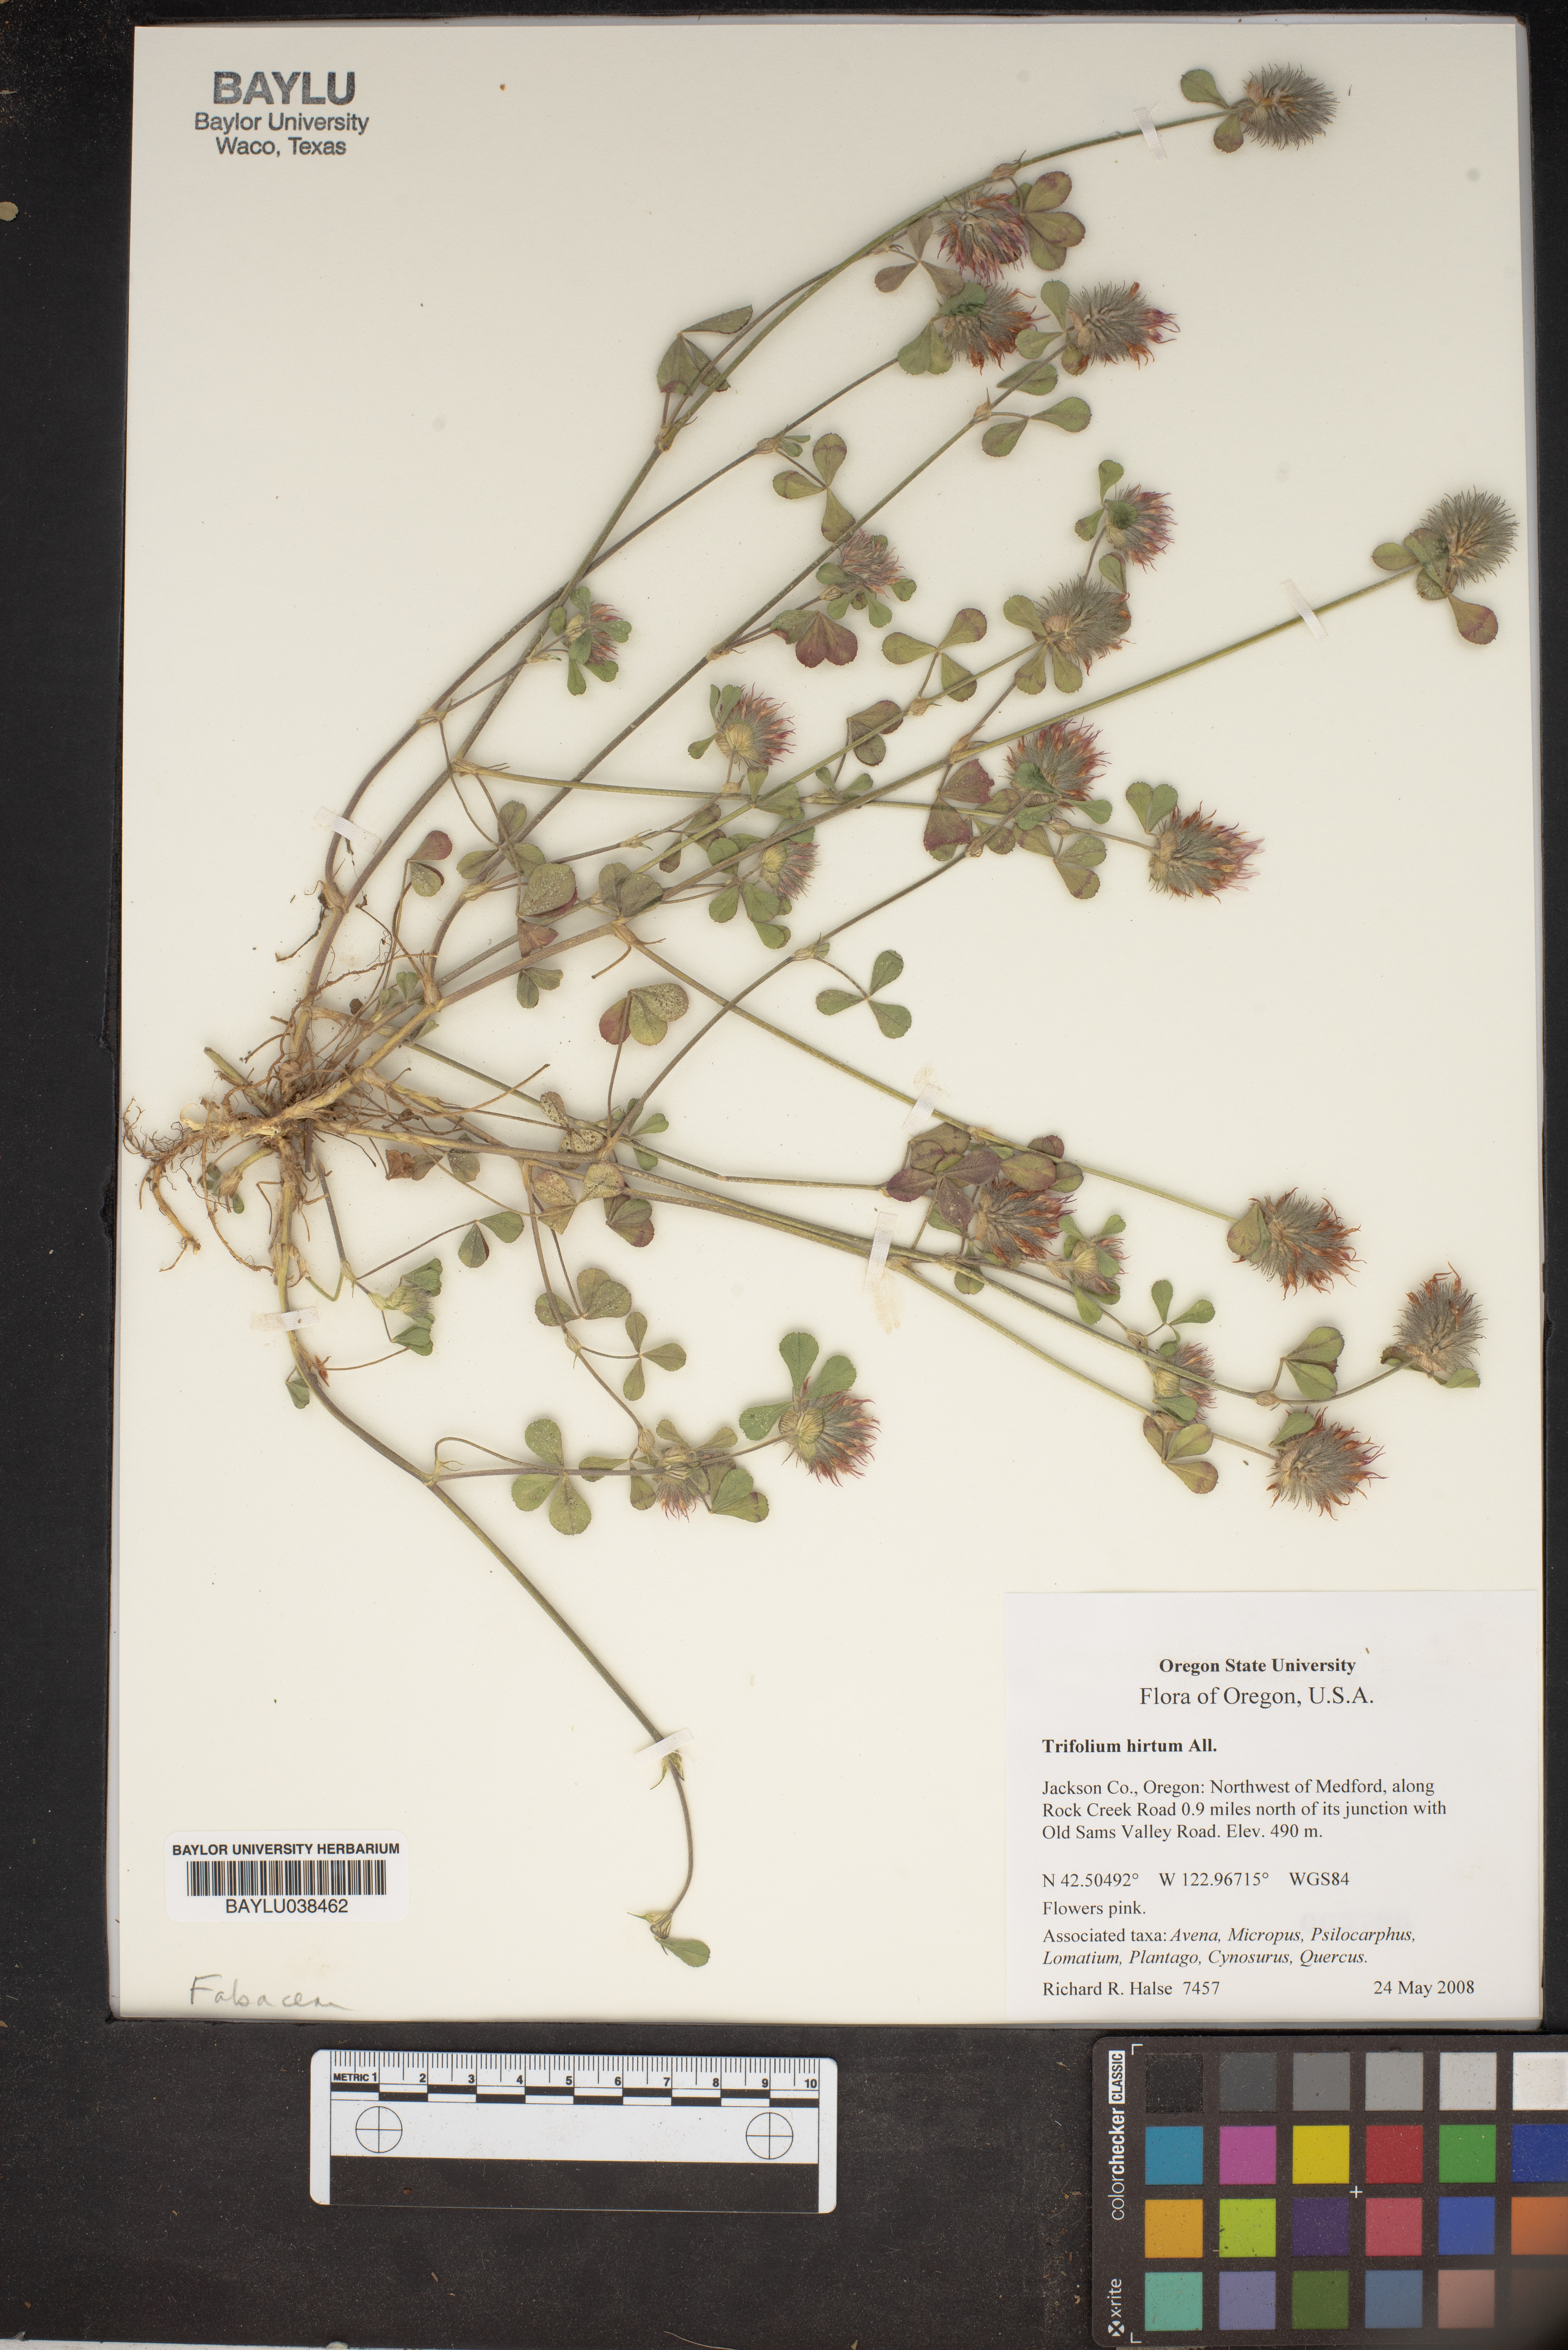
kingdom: Plantae
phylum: Tracheophyta
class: Magnoliopsida
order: Fabales
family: Fabaceae
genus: Trifolium
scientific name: Trifolium hirtum
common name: Rose clover
